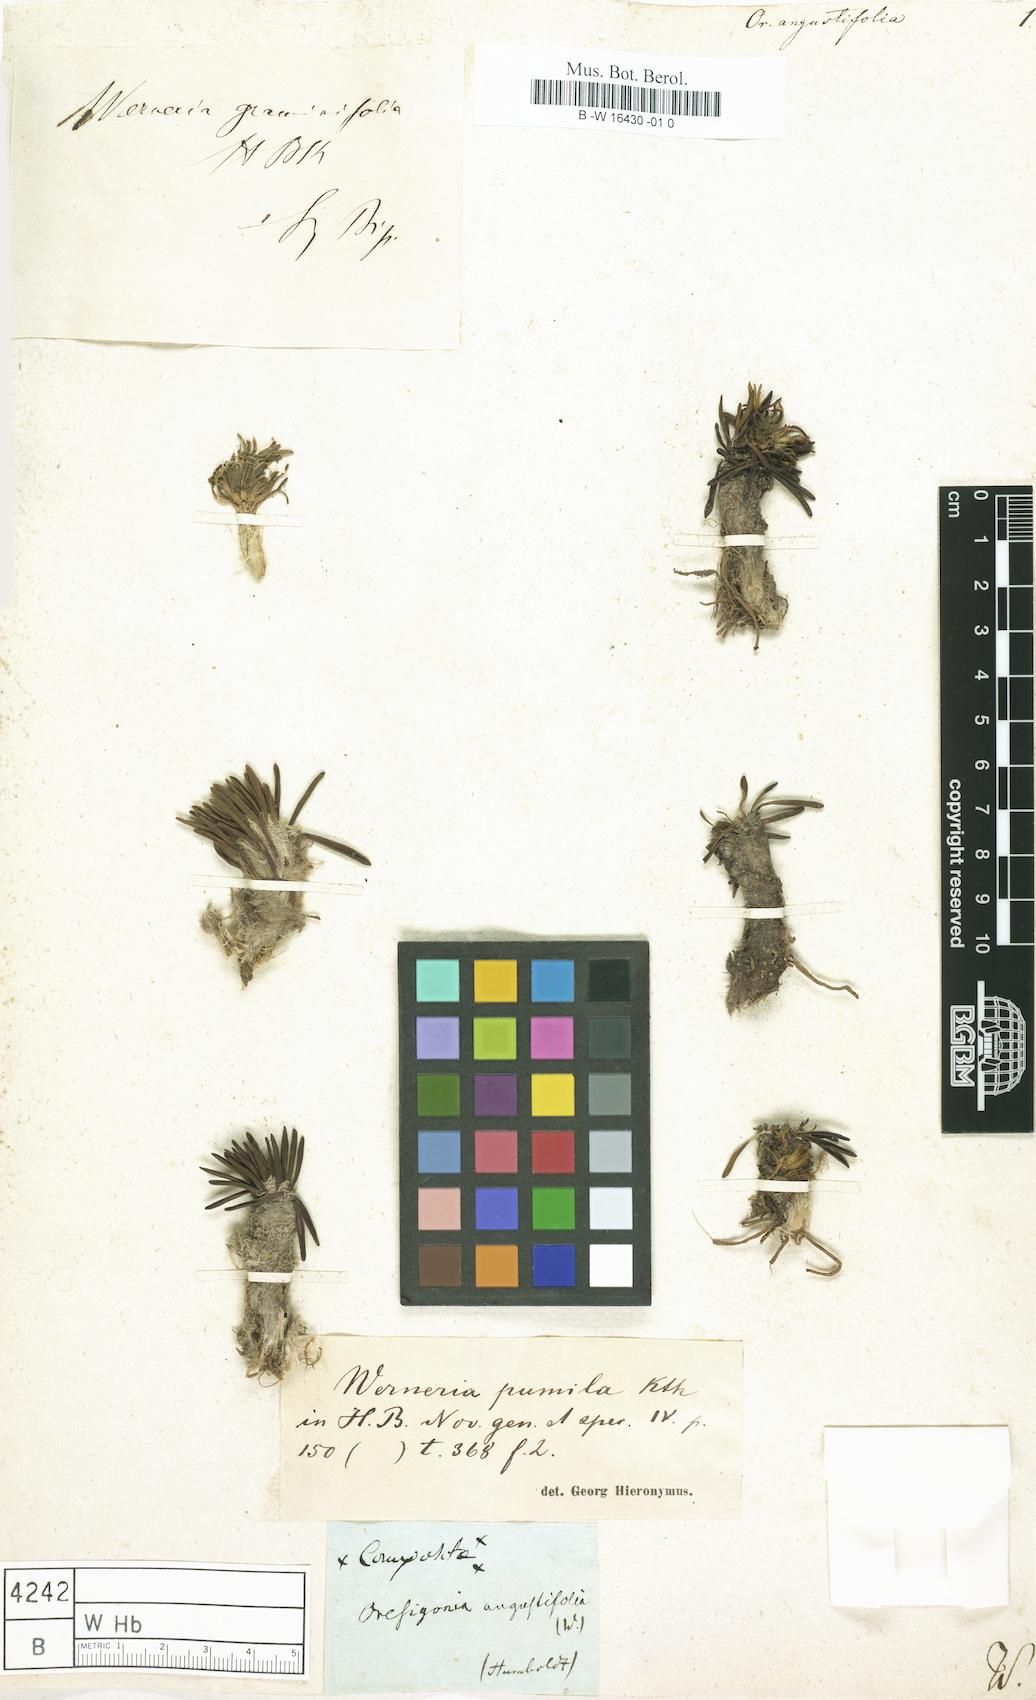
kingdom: Plantae
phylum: Tracheophyta
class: Magnoliopsida
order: Asterales
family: Asteraceae
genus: Rockhausenia
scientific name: Rockhausenia pumila
